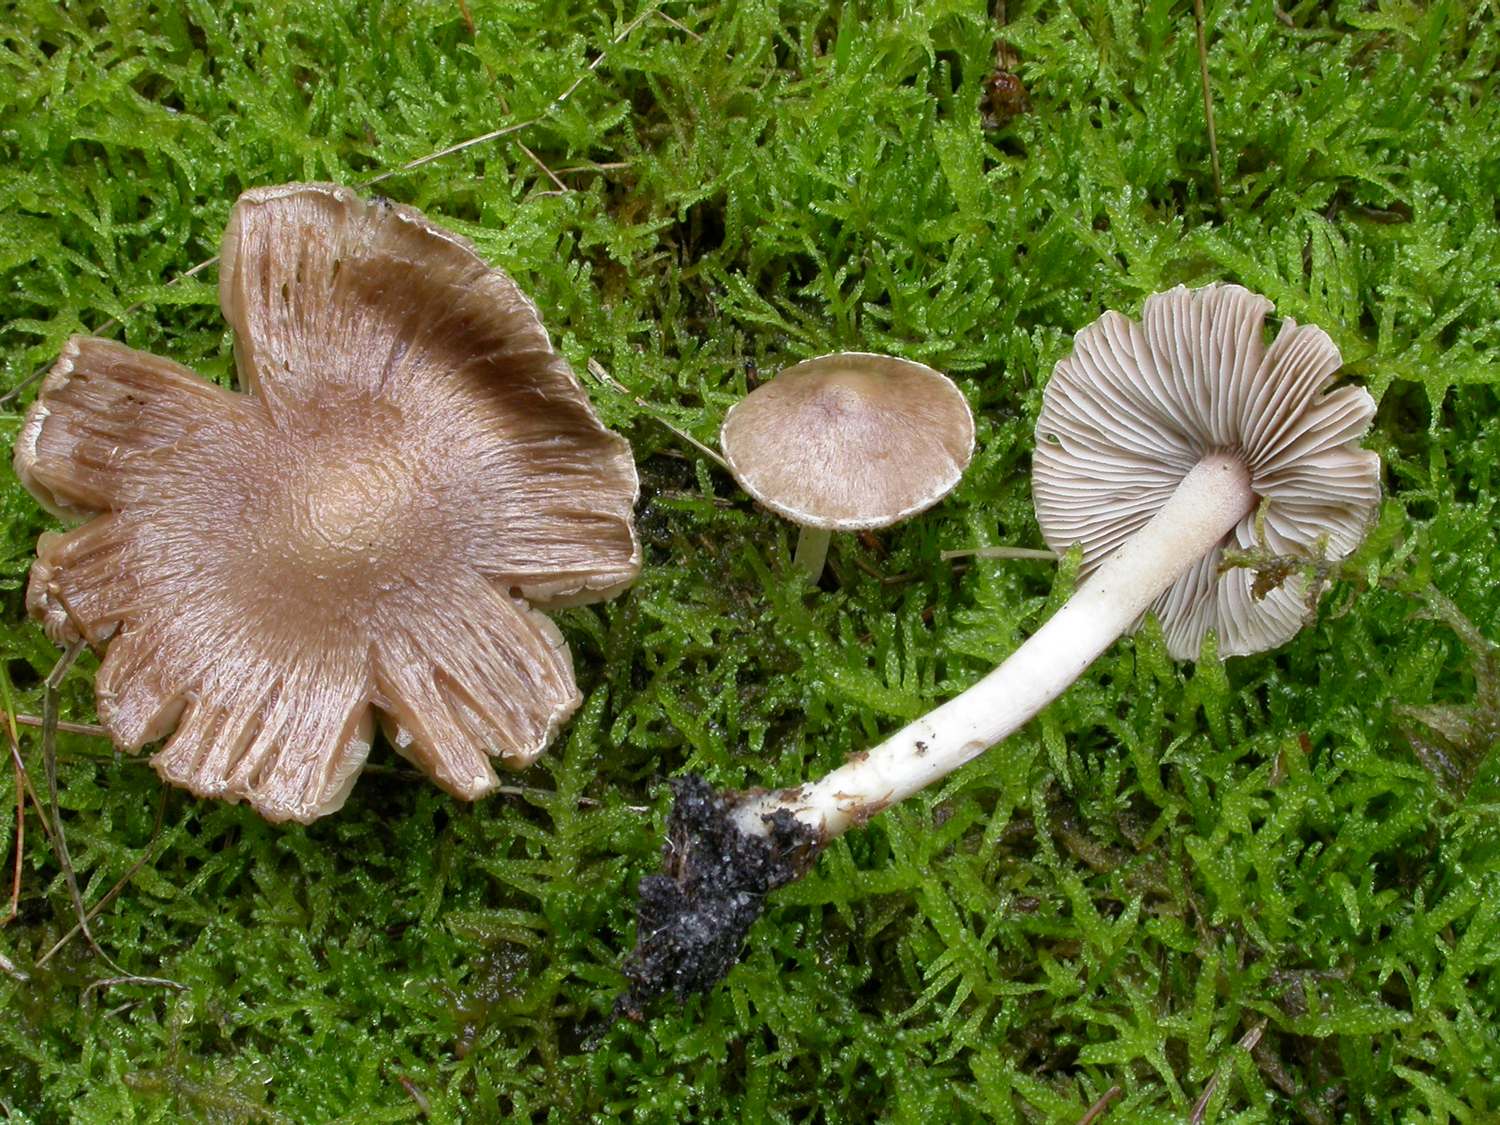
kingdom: Fungi
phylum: Basidiomycota
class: Agaricomycetes
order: Agaricales
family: Inocybaceae
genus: Inocybe
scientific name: Inocybe sindonia
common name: bleg trævlhat
